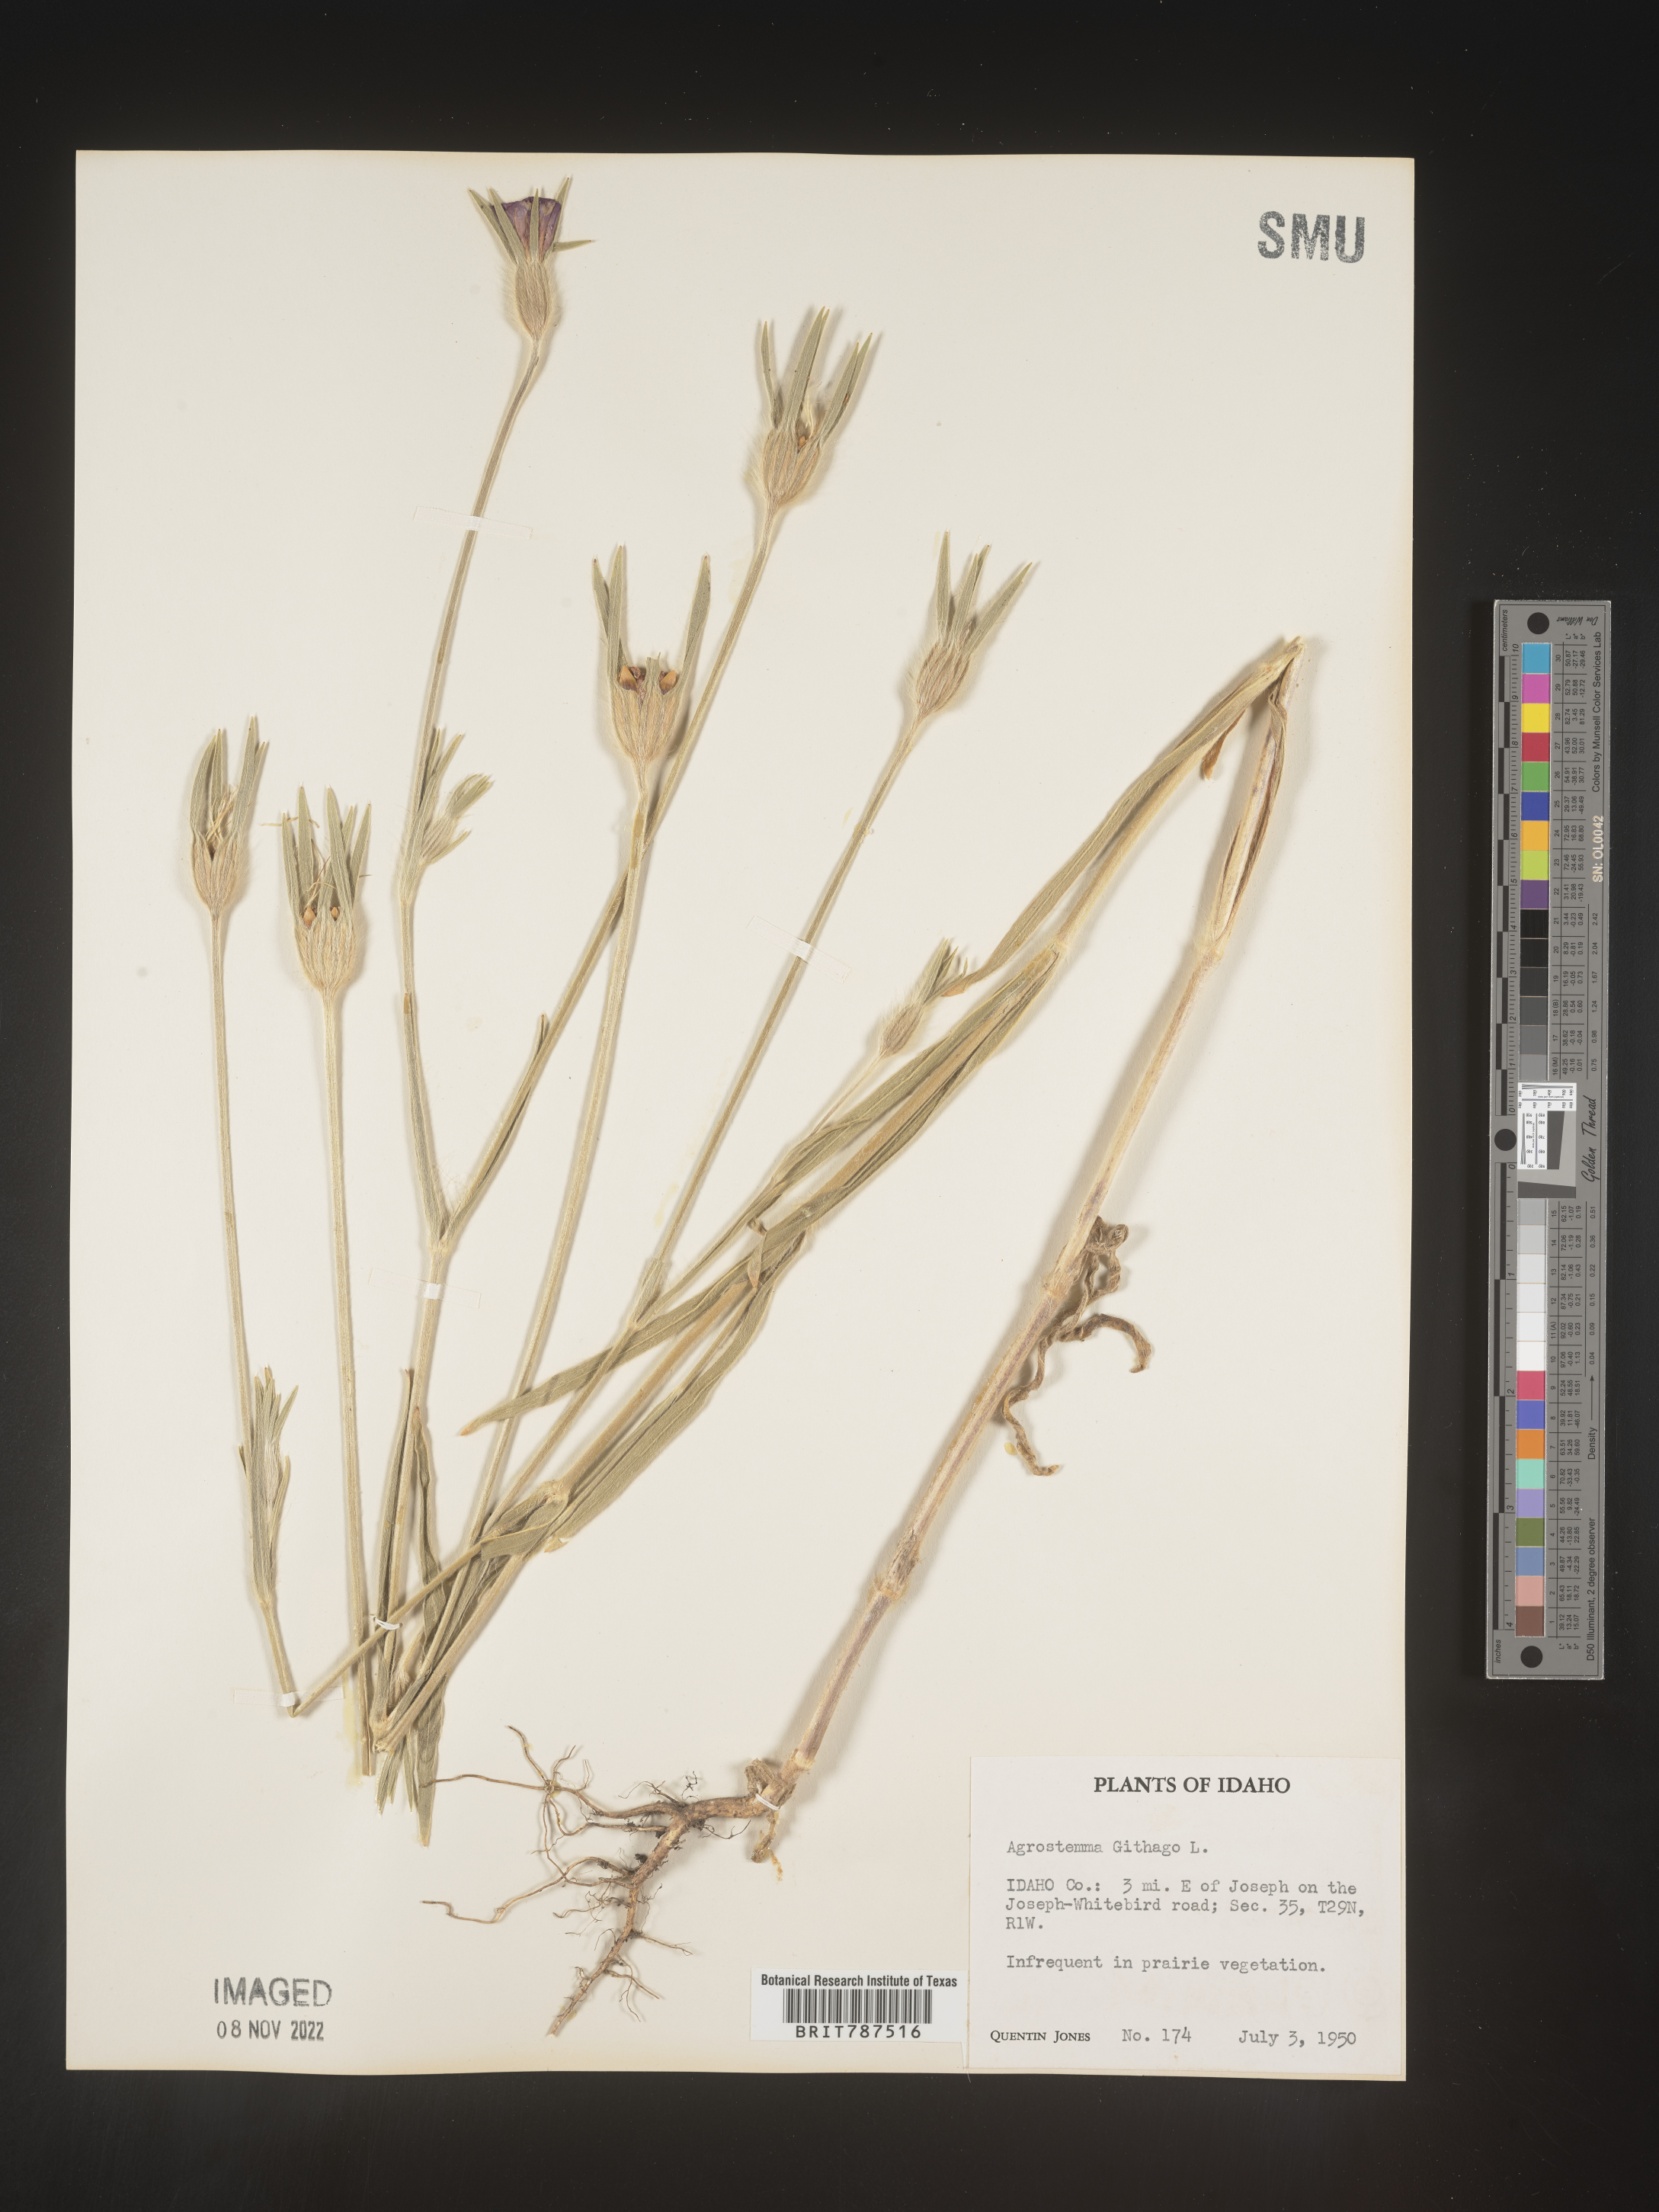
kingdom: Plantae
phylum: Tracheophyta
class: Magnoliopsida
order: Caryophyllales
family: Caryophyllaceae
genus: Agrostemma
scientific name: Agrostemma githago
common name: Common corncockle
